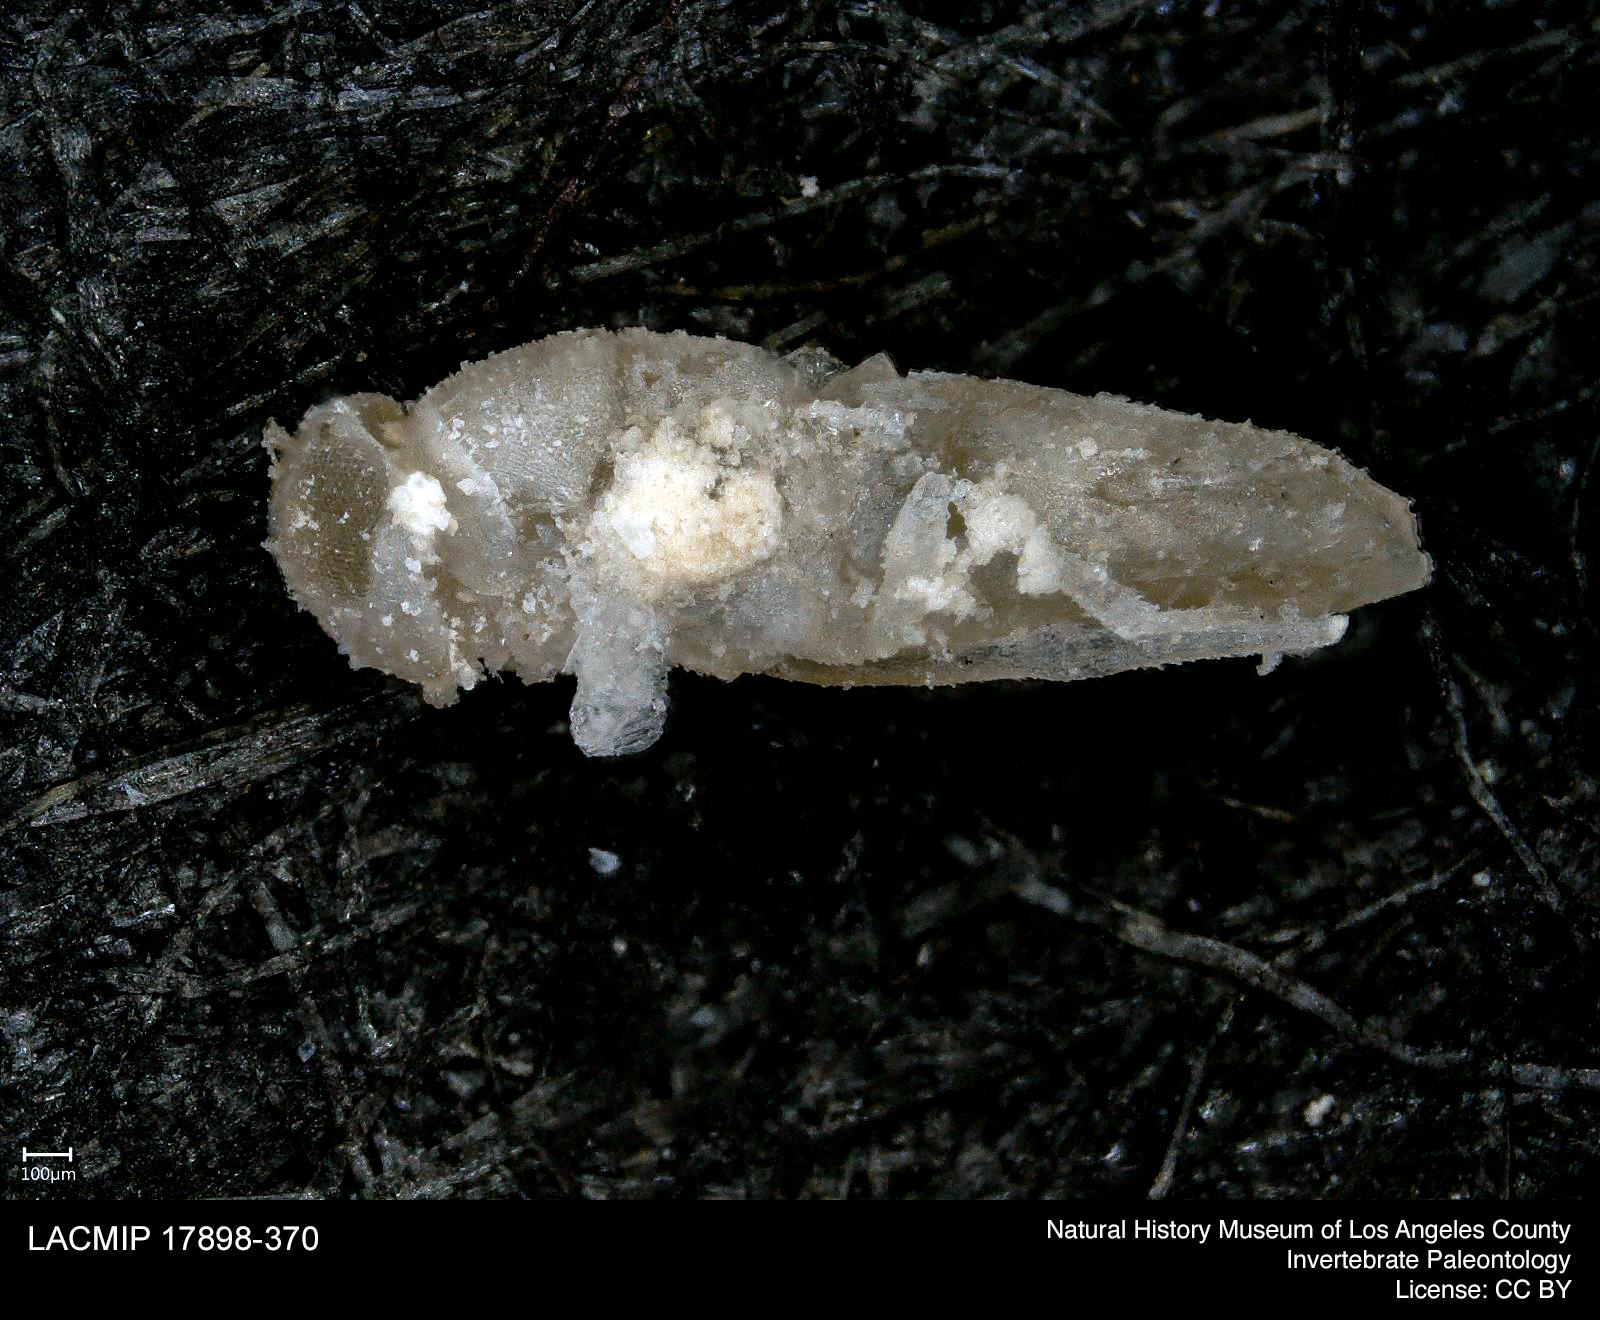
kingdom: Animalia
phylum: Arthropoda
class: Insecta
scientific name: Insecta
